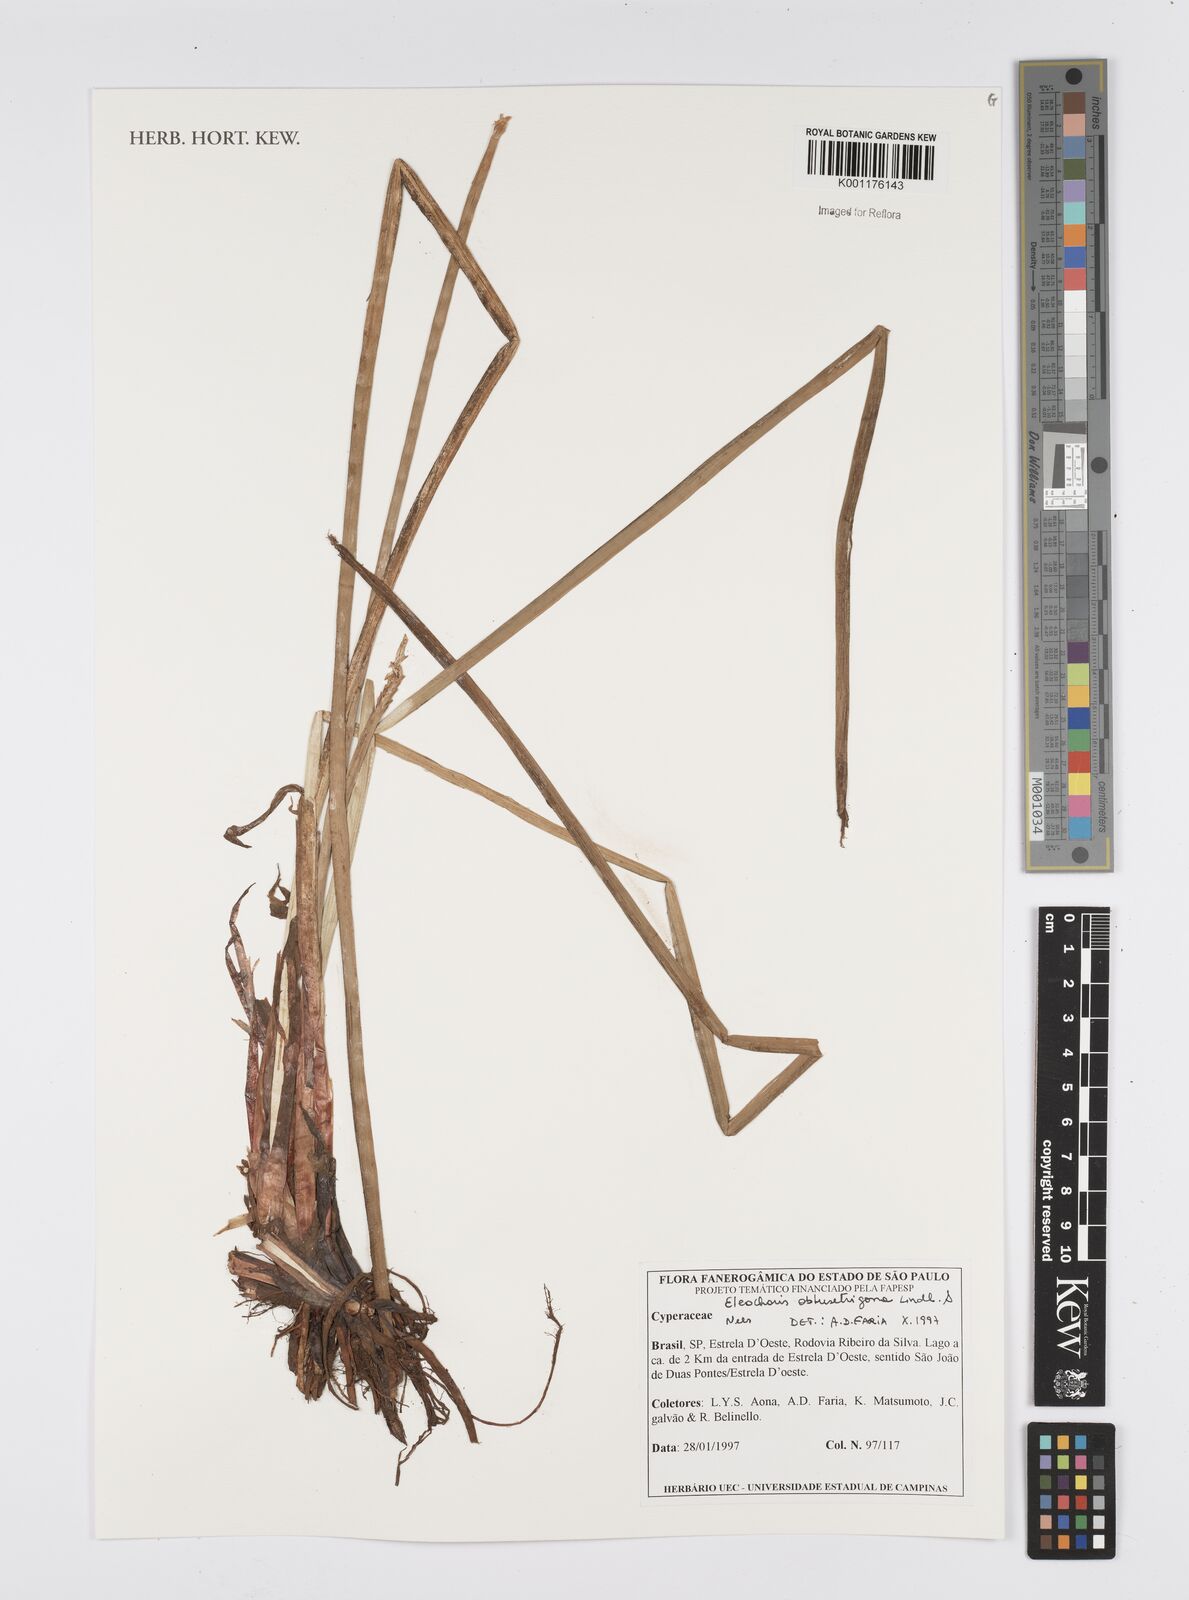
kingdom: Plantae
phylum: Tracheophyta
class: Liliopsida
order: Poales
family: Cyperaceae
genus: Eleocharis
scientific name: Eleocharis acutangula
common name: Acute spikerush
